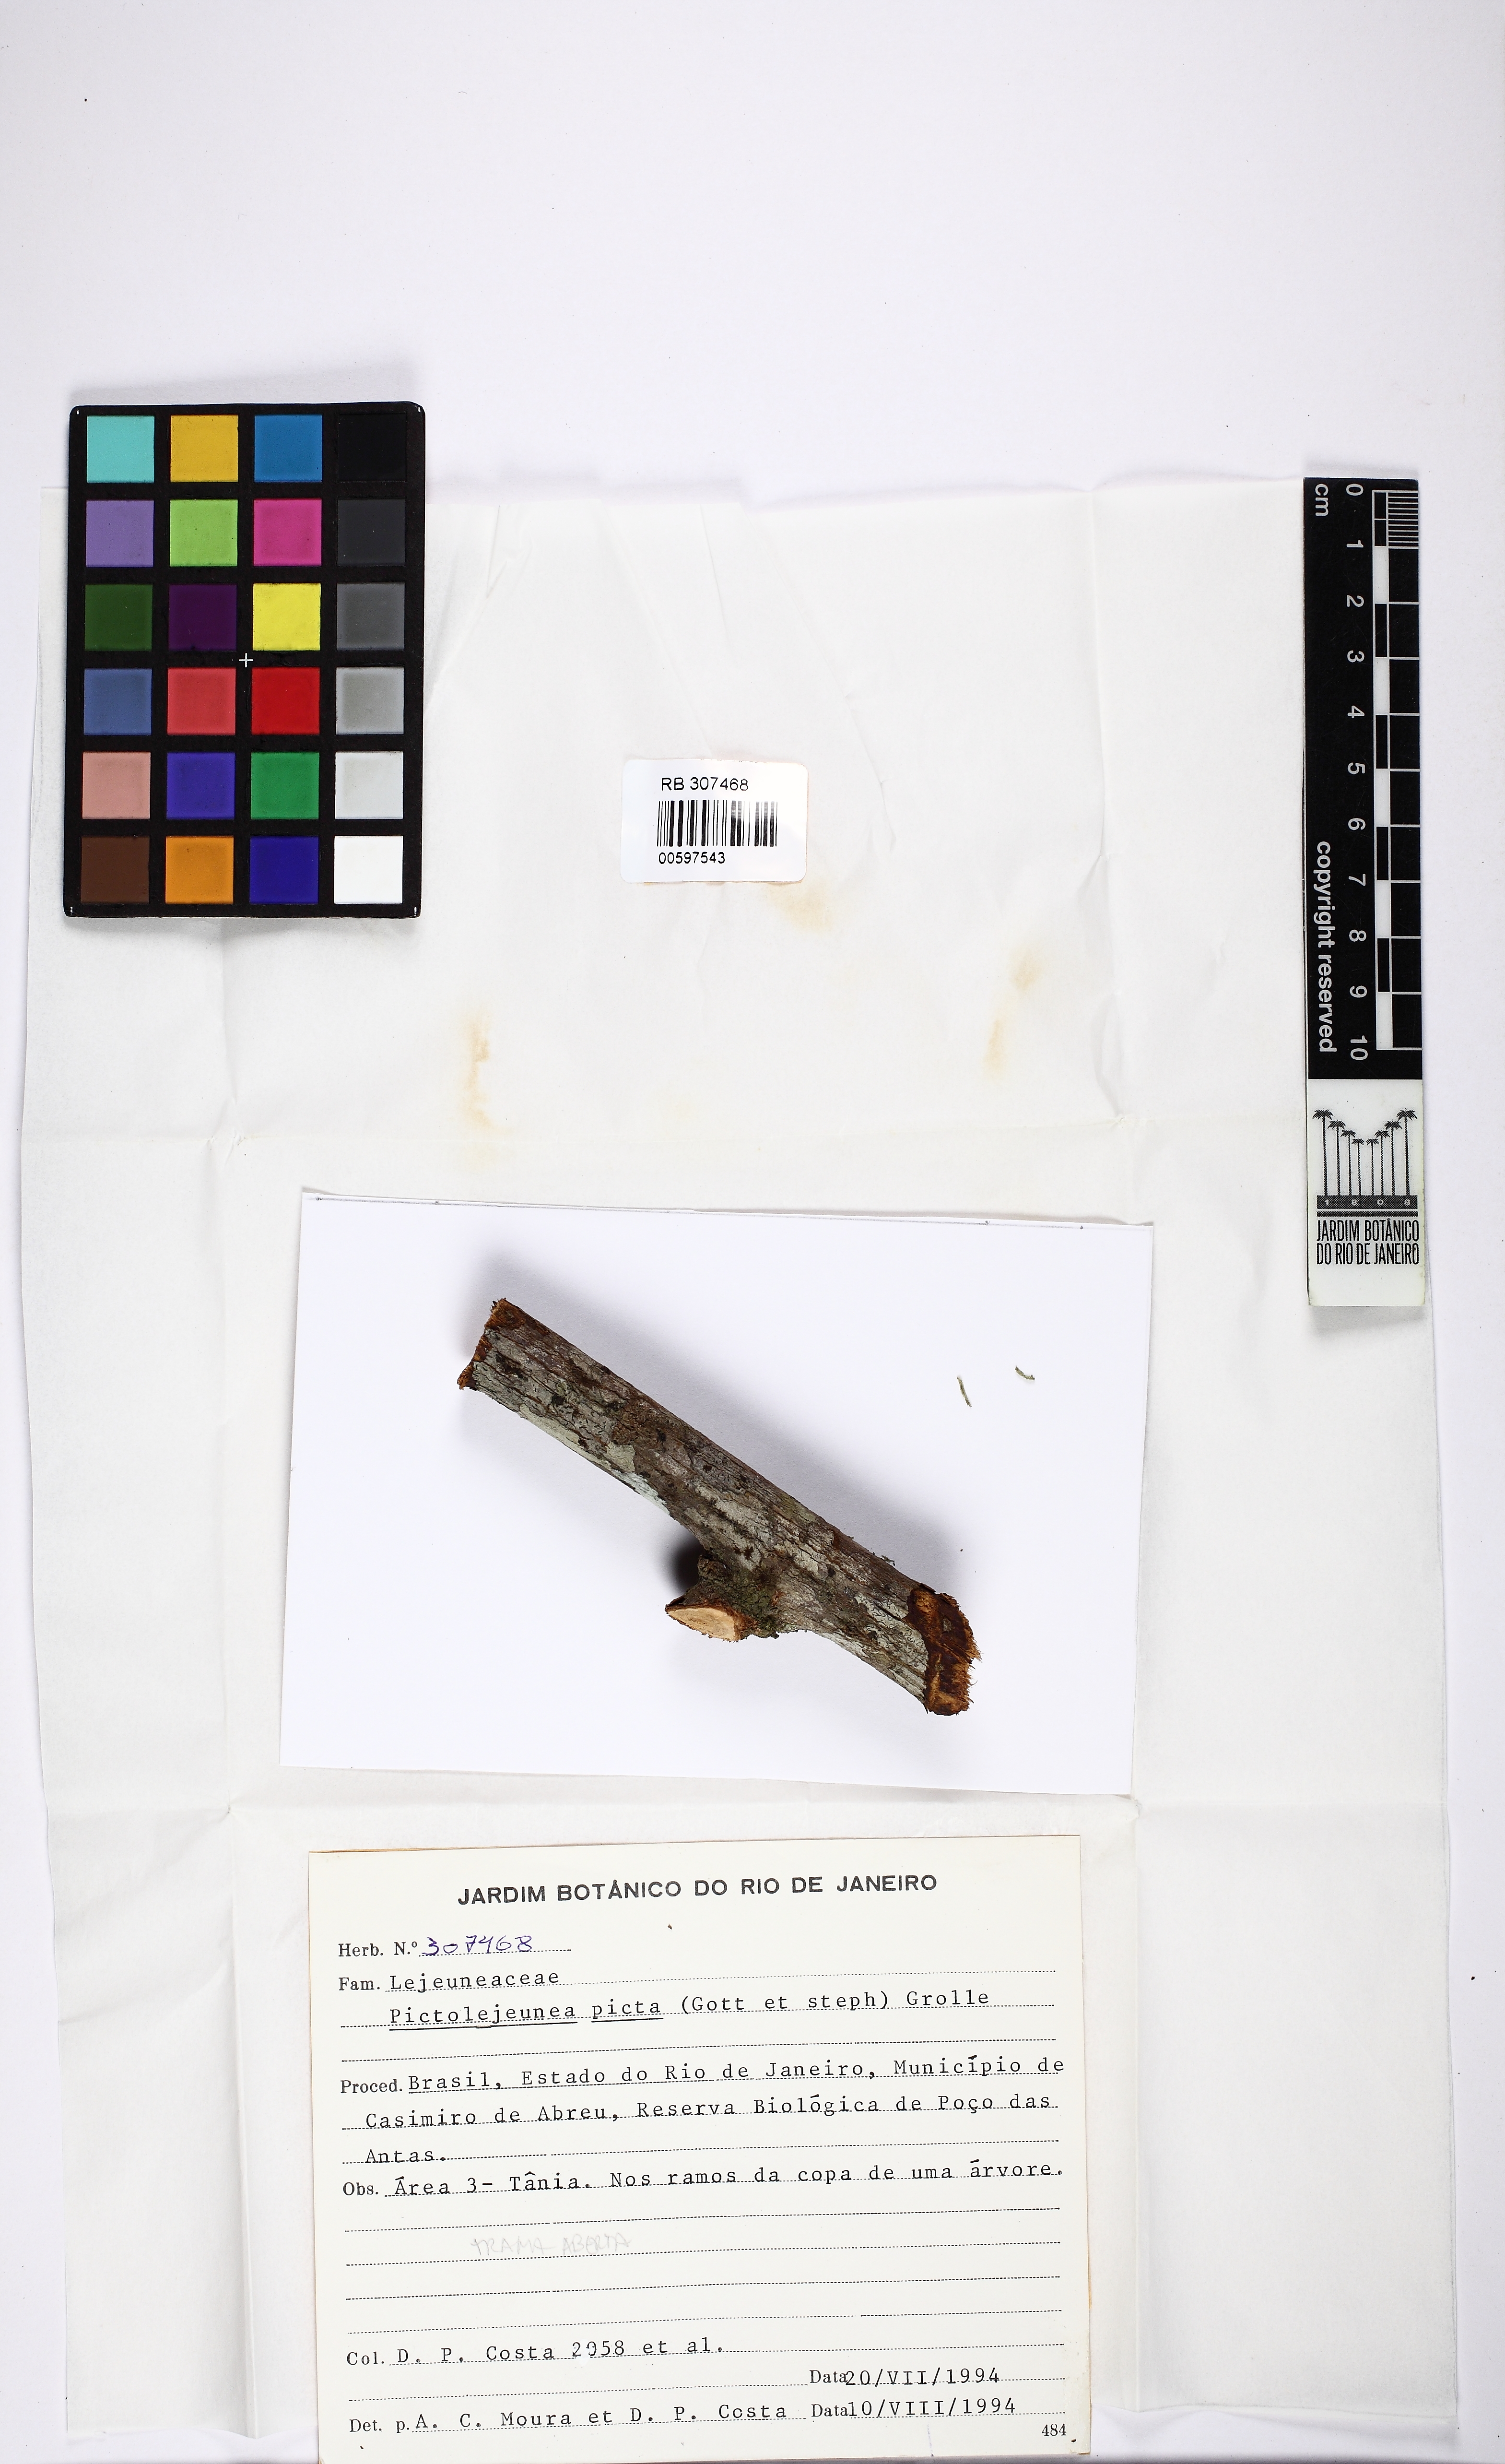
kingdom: Plantae
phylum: Marchantiophyta
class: Jungermanniopsida
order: Porellales
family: Lejeuneaceae
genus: Pictolejeunea
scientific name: Pictolejeunea picta
